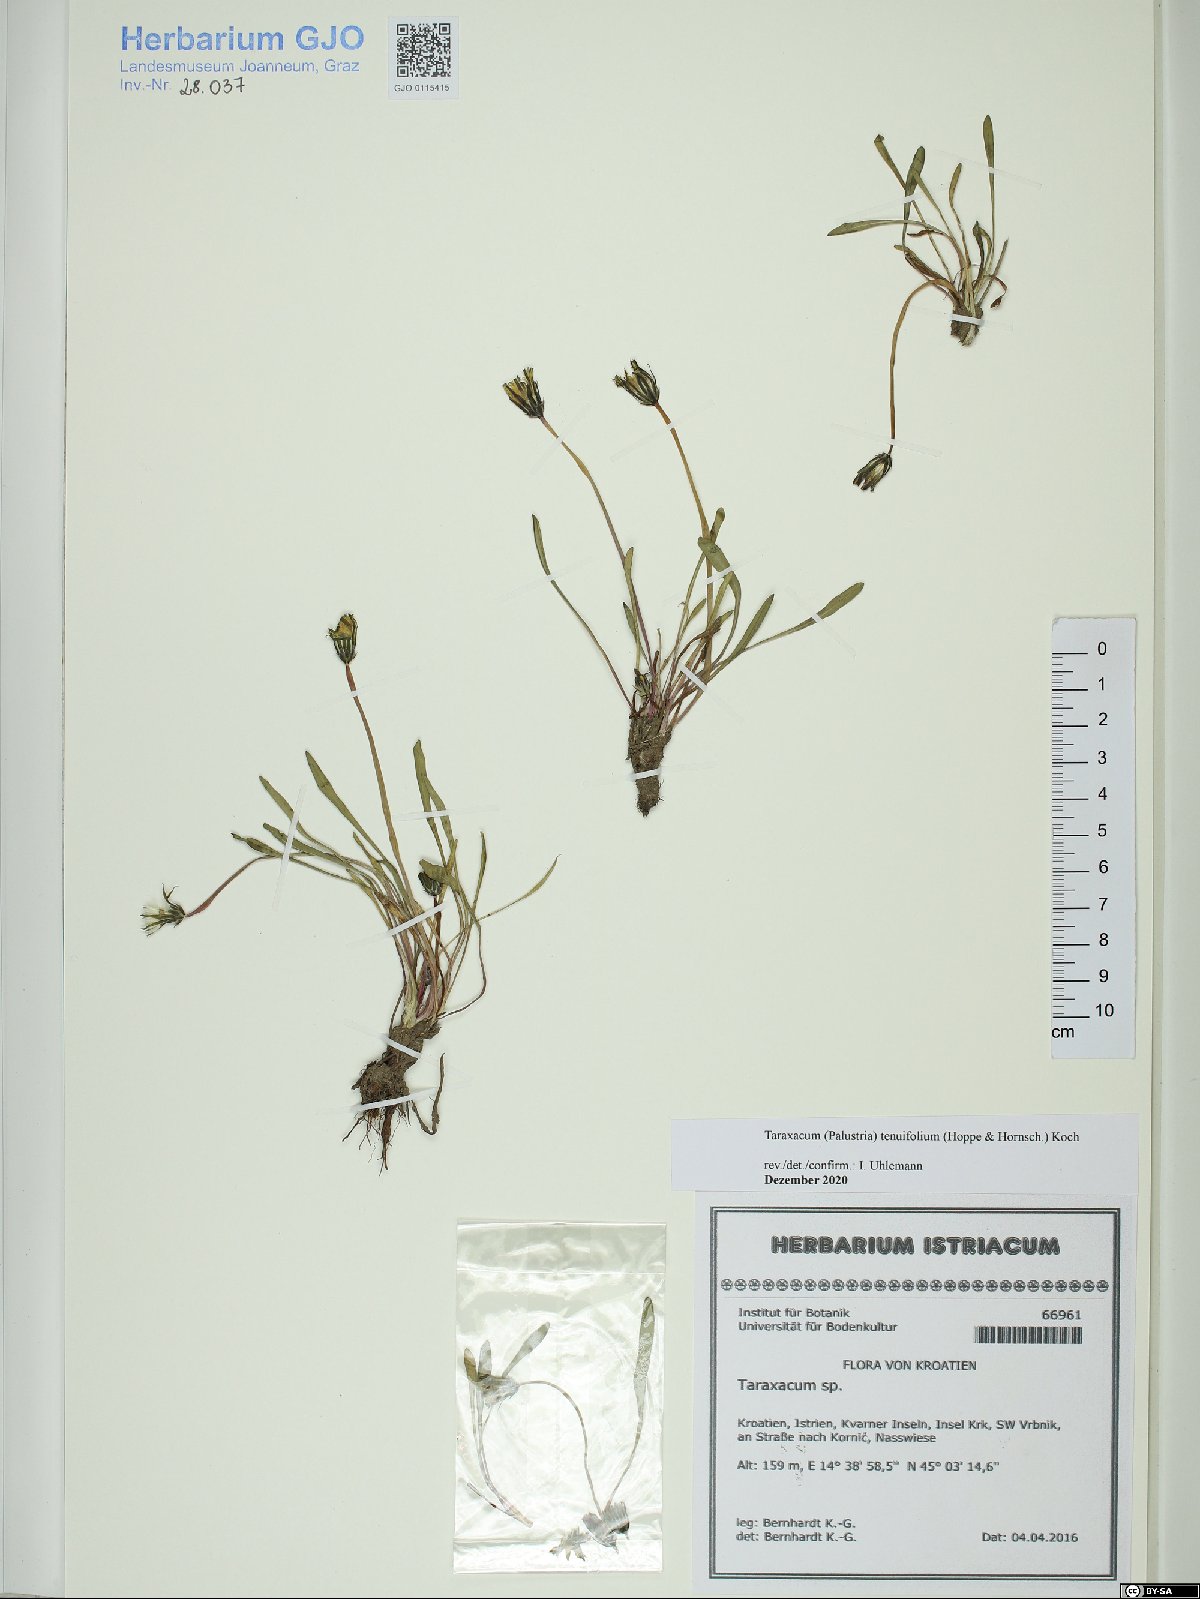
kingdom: Plantae
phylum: Tracheophyta
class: Magnoliopsida
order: Asterales
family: Asteraceae
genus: Taraxacum
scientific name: Taraxacum tenuifolium
